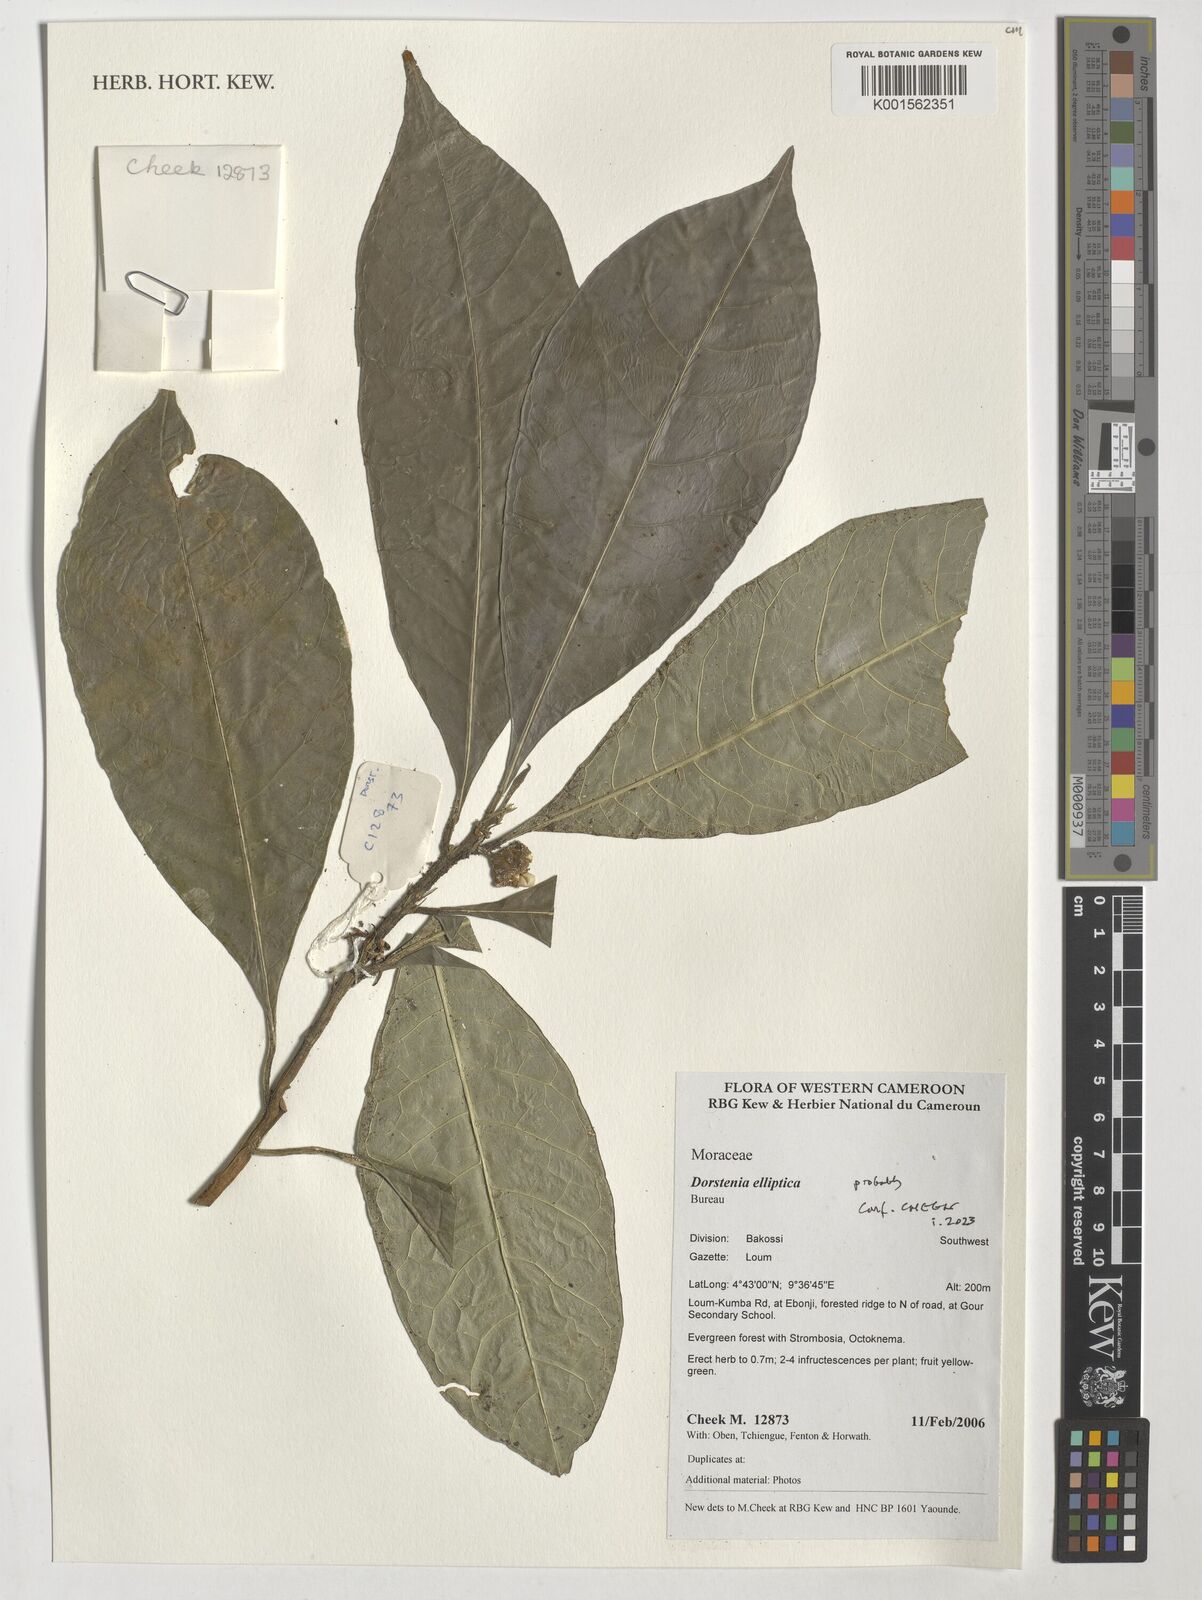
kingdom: Plantae
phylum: Tracheophyta
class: Magnoliopsida
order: Rosales
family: Moraceae
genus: Dorstenia
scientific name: Dorstenia elliptica
